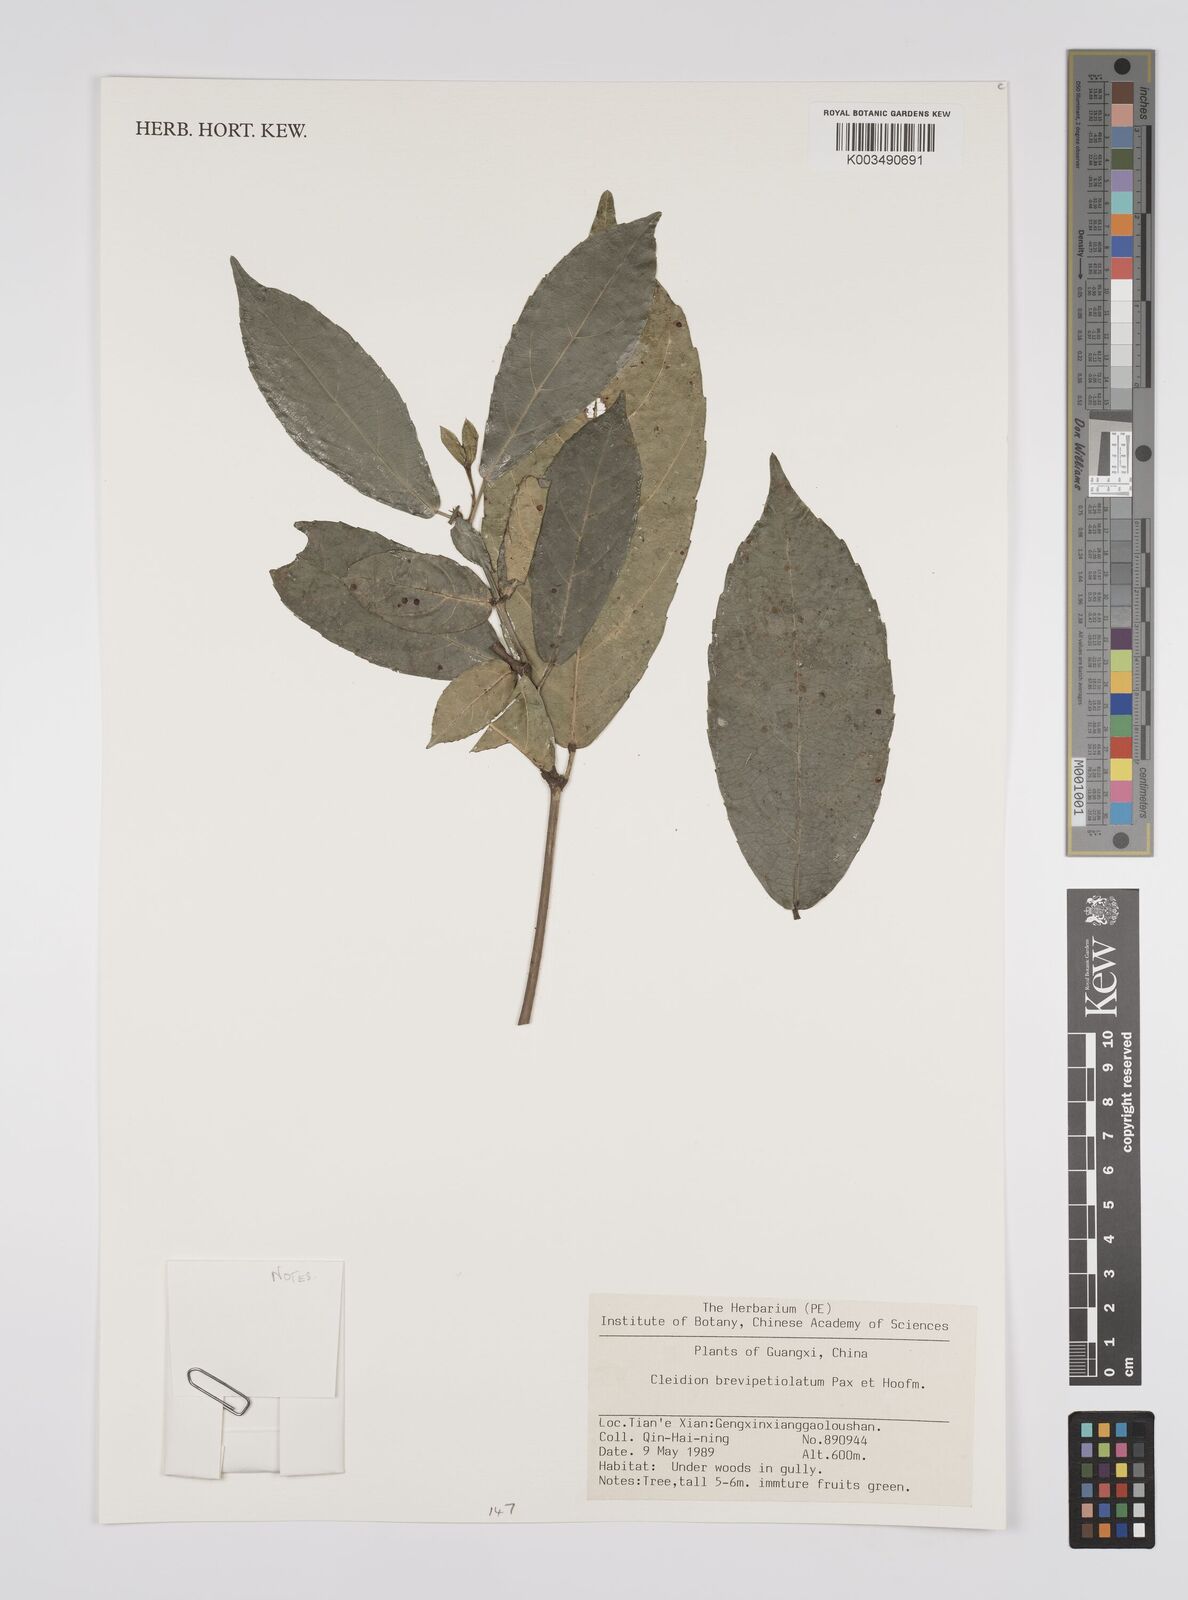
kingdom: Plantae
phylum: Tracheophyta
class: Magnoliopsida
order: Malpighiales
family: Euphorbiaceae
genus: Cleidion
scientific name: Cleidion brevipetiolatum
